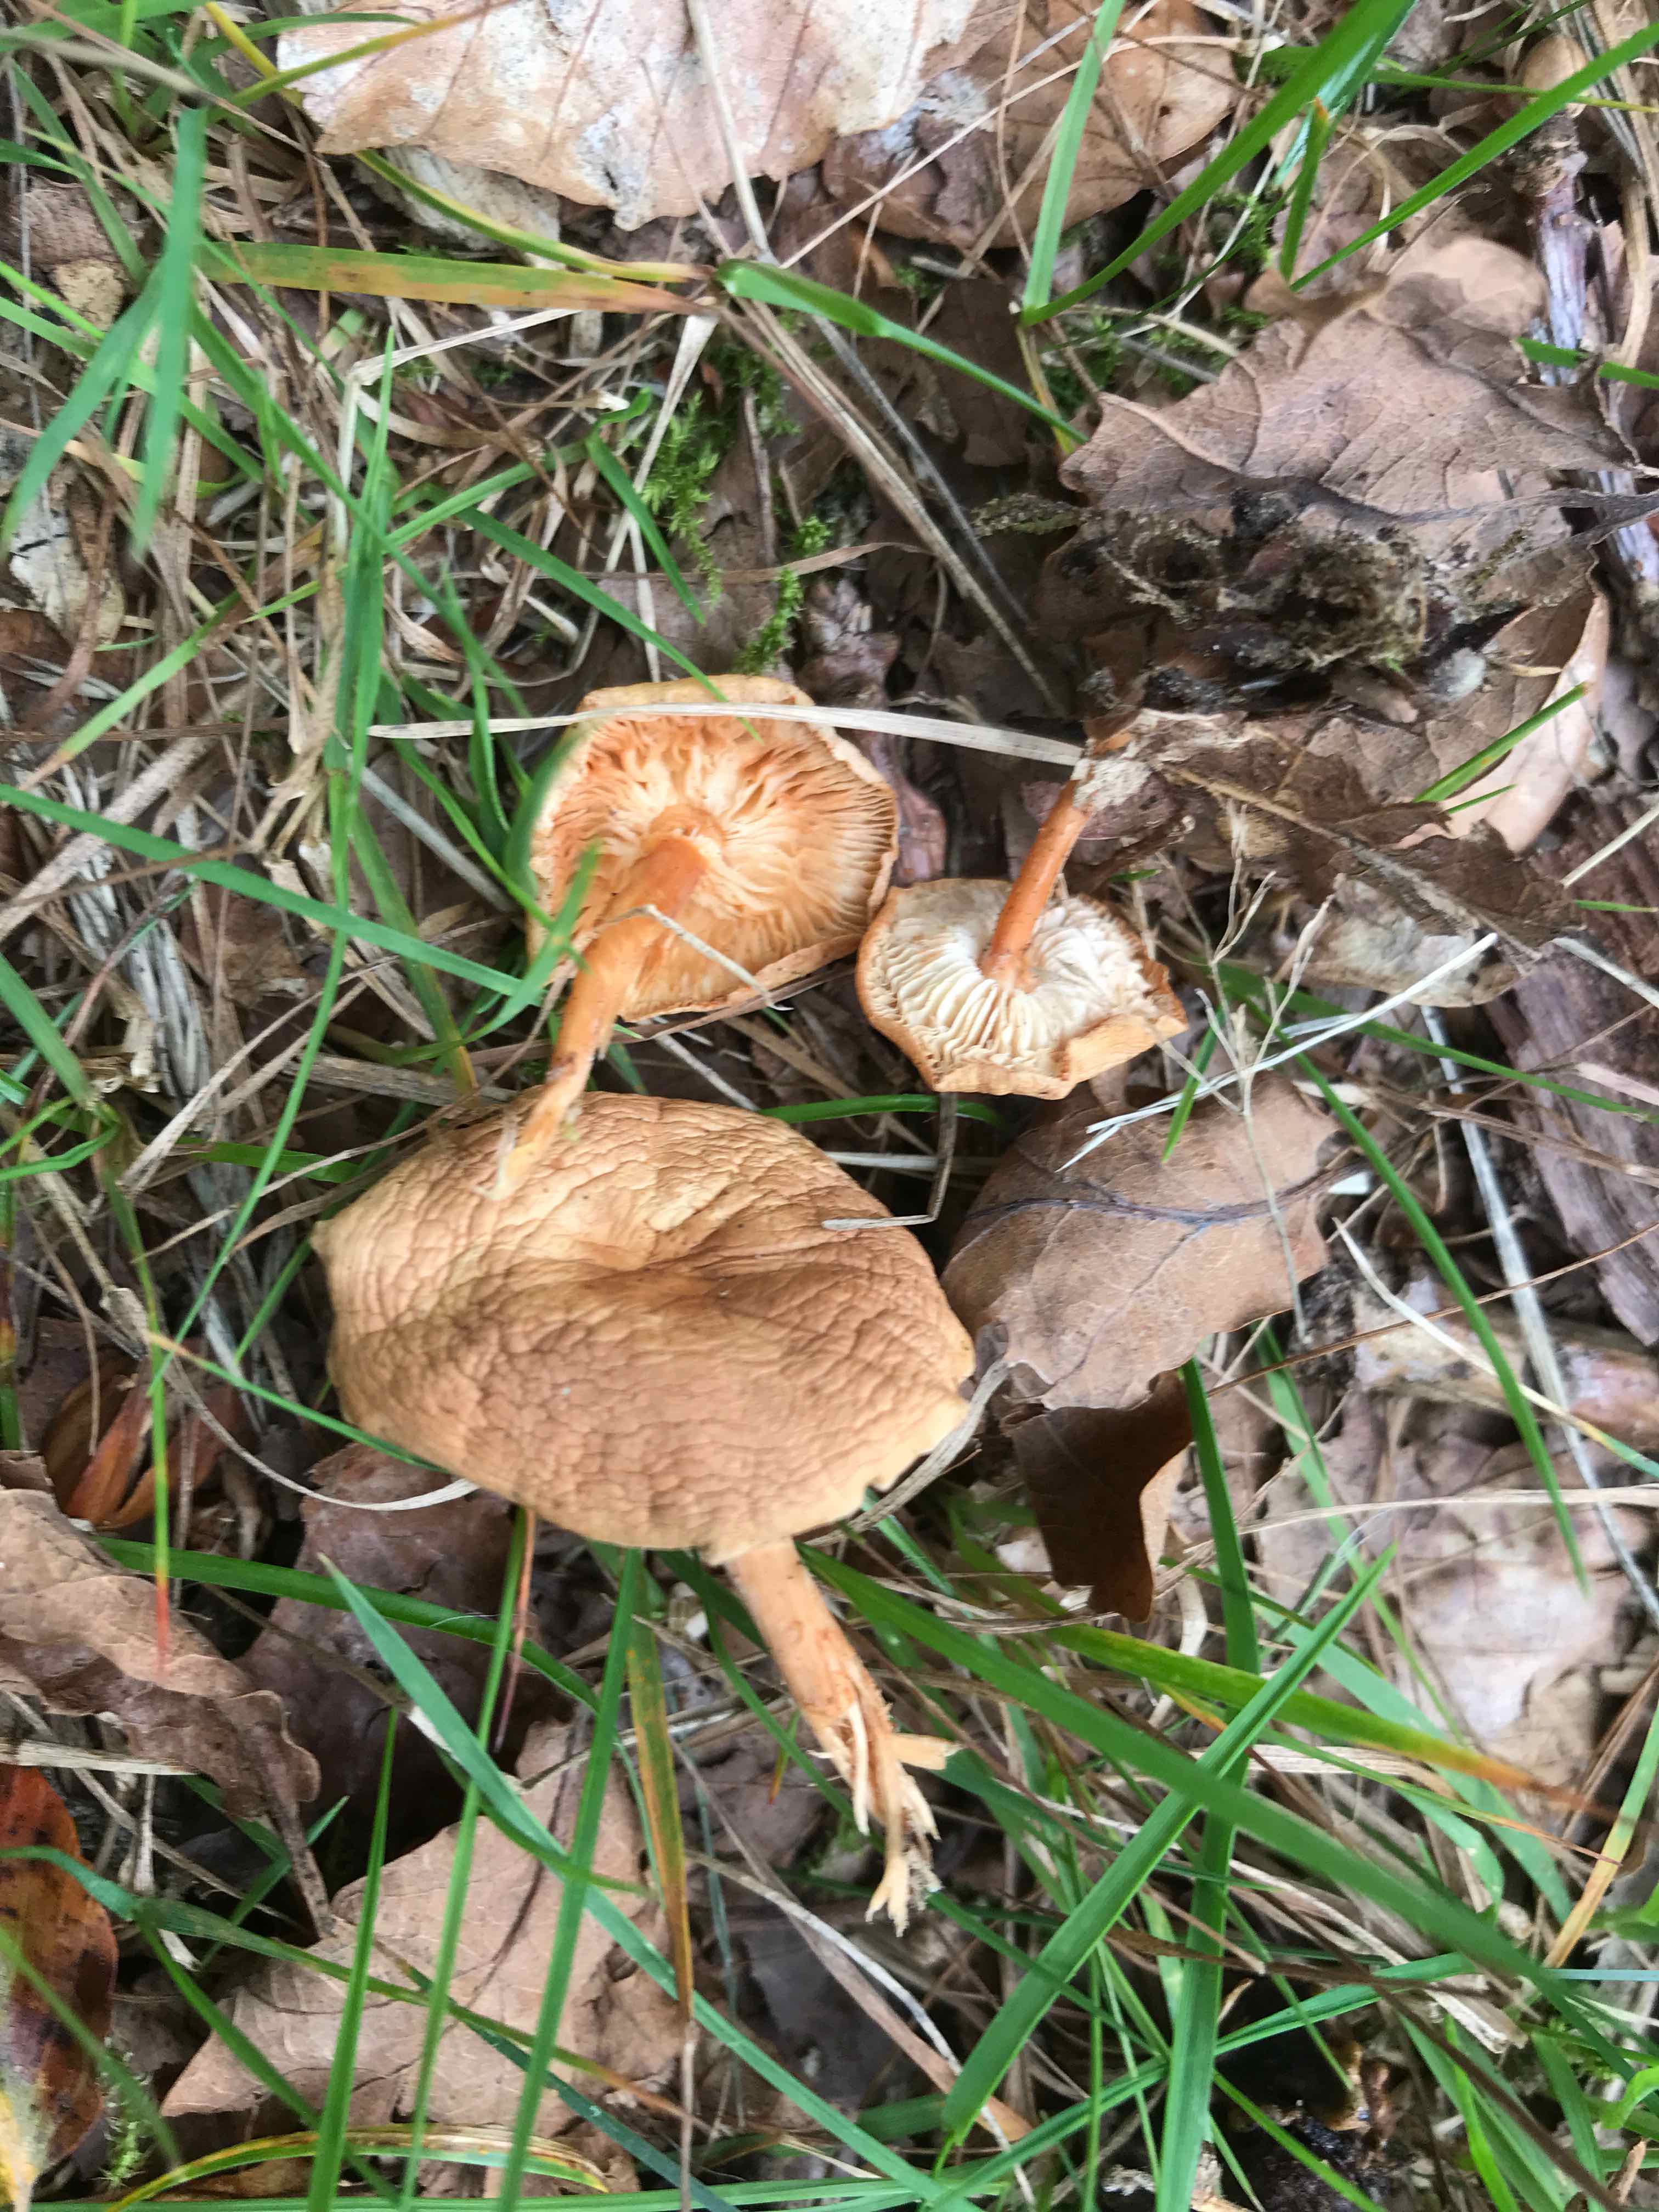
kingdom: Fungi
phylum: Basidiomycota
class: Agaricomycetes
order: Agaricales
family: Omphalotaceae
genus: Gymnopus
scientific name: Gymnopus dryophilus
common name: løv-fladhat
